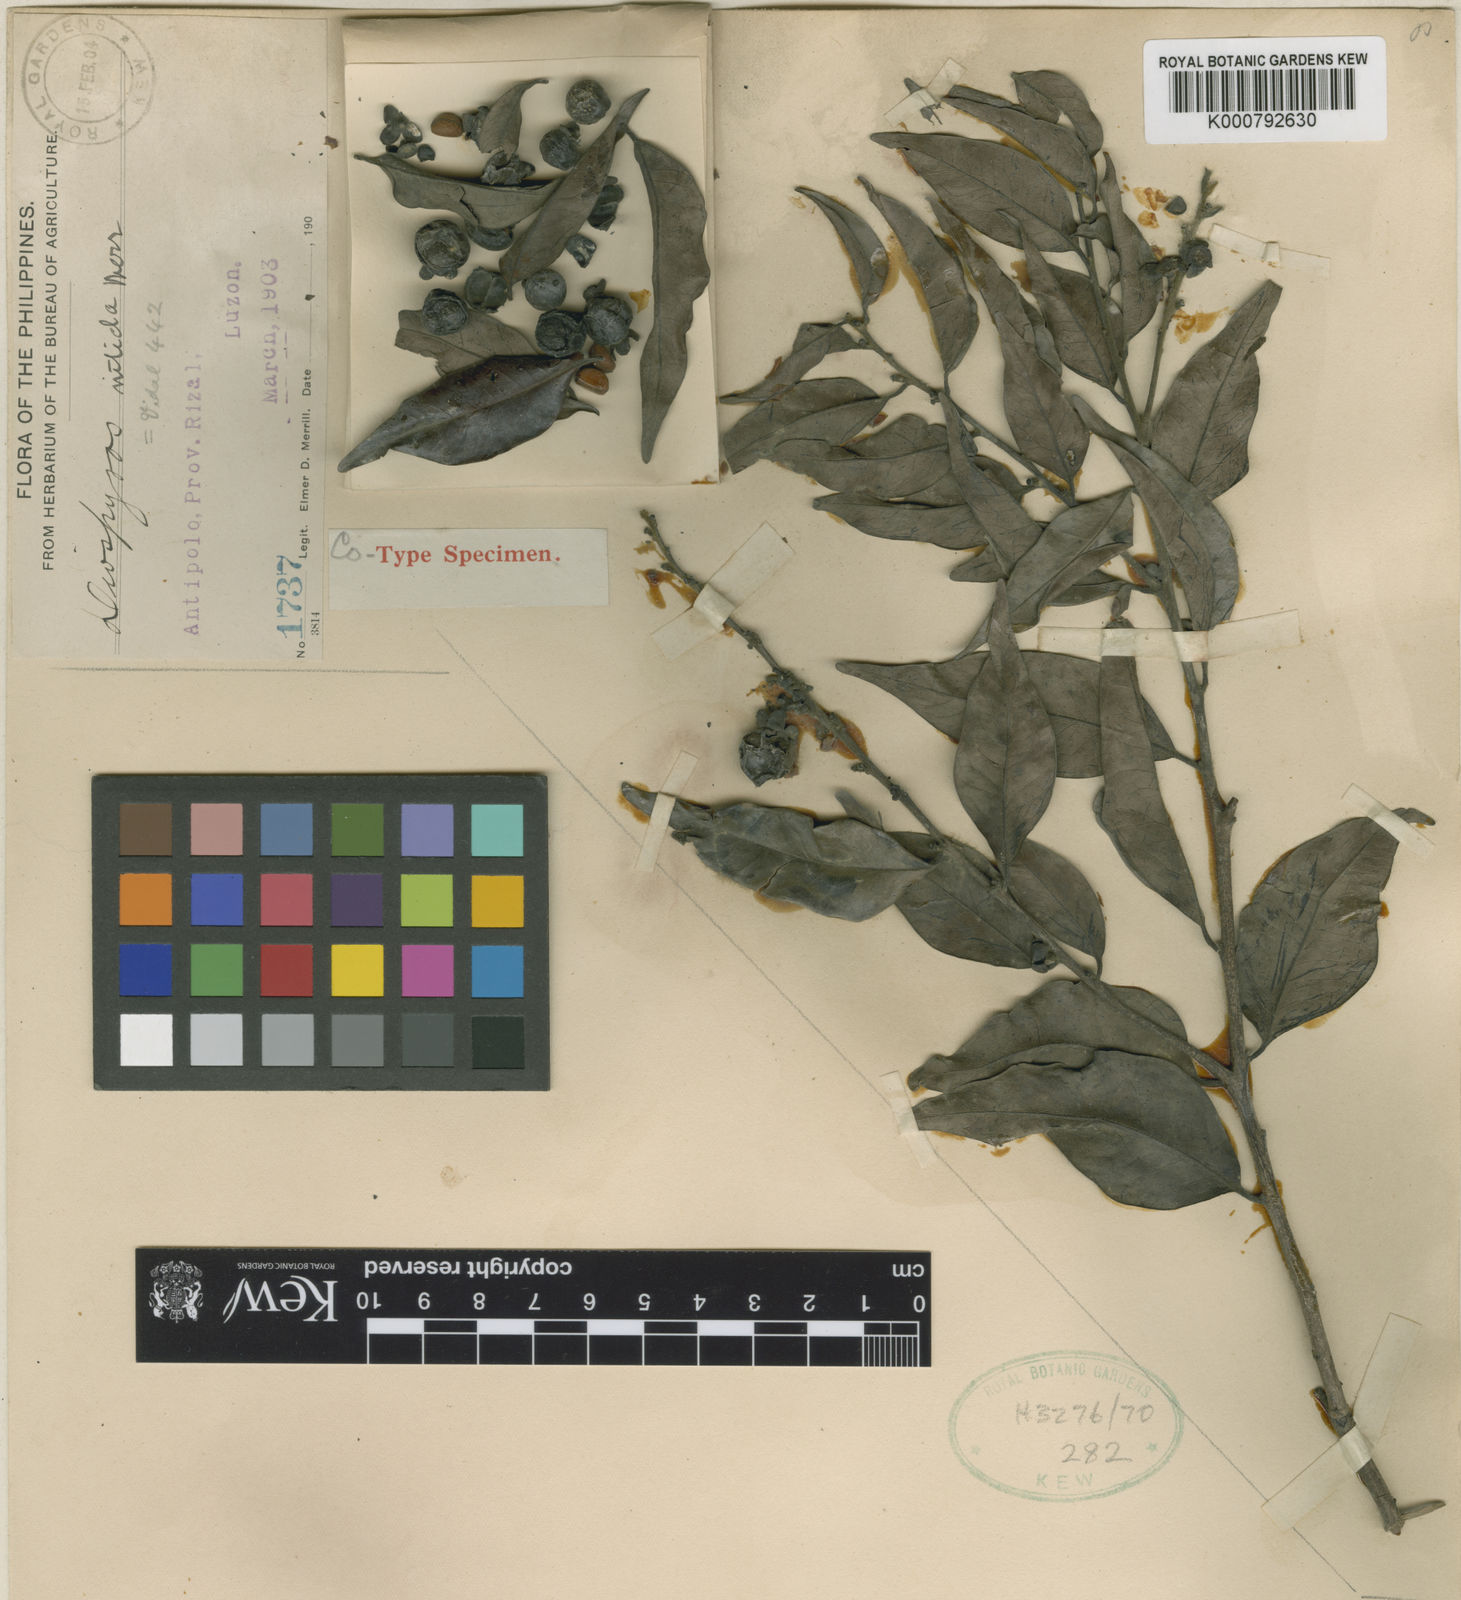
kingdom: Plantae
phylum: Tracheophyta
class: Magnoliopsida
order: Ericales
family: Ebenaceae
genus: Diospyros
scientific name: Diospyros heishi
